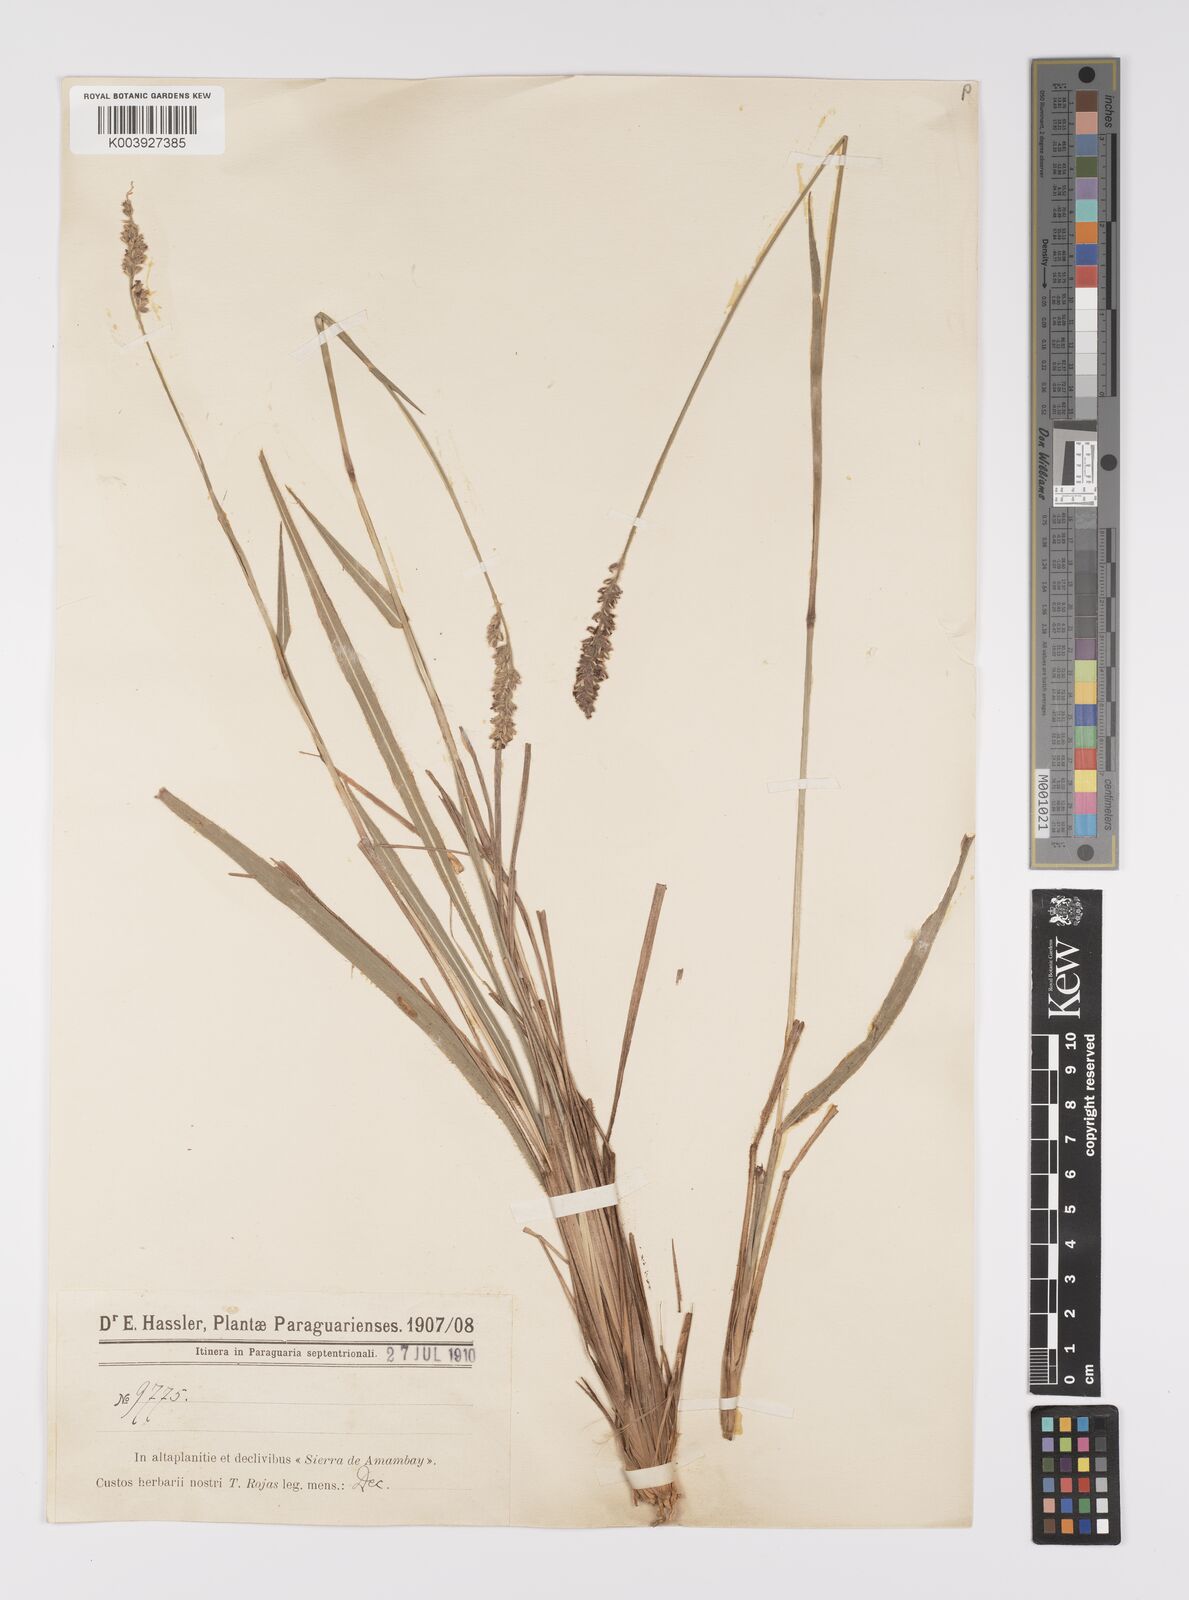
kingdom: Plantae
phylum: Tracheophyta
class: Liliopsida
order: Poales
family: Poaceae
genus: Anthaenantiopsis
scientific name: Anthaenantiopsis perforata
